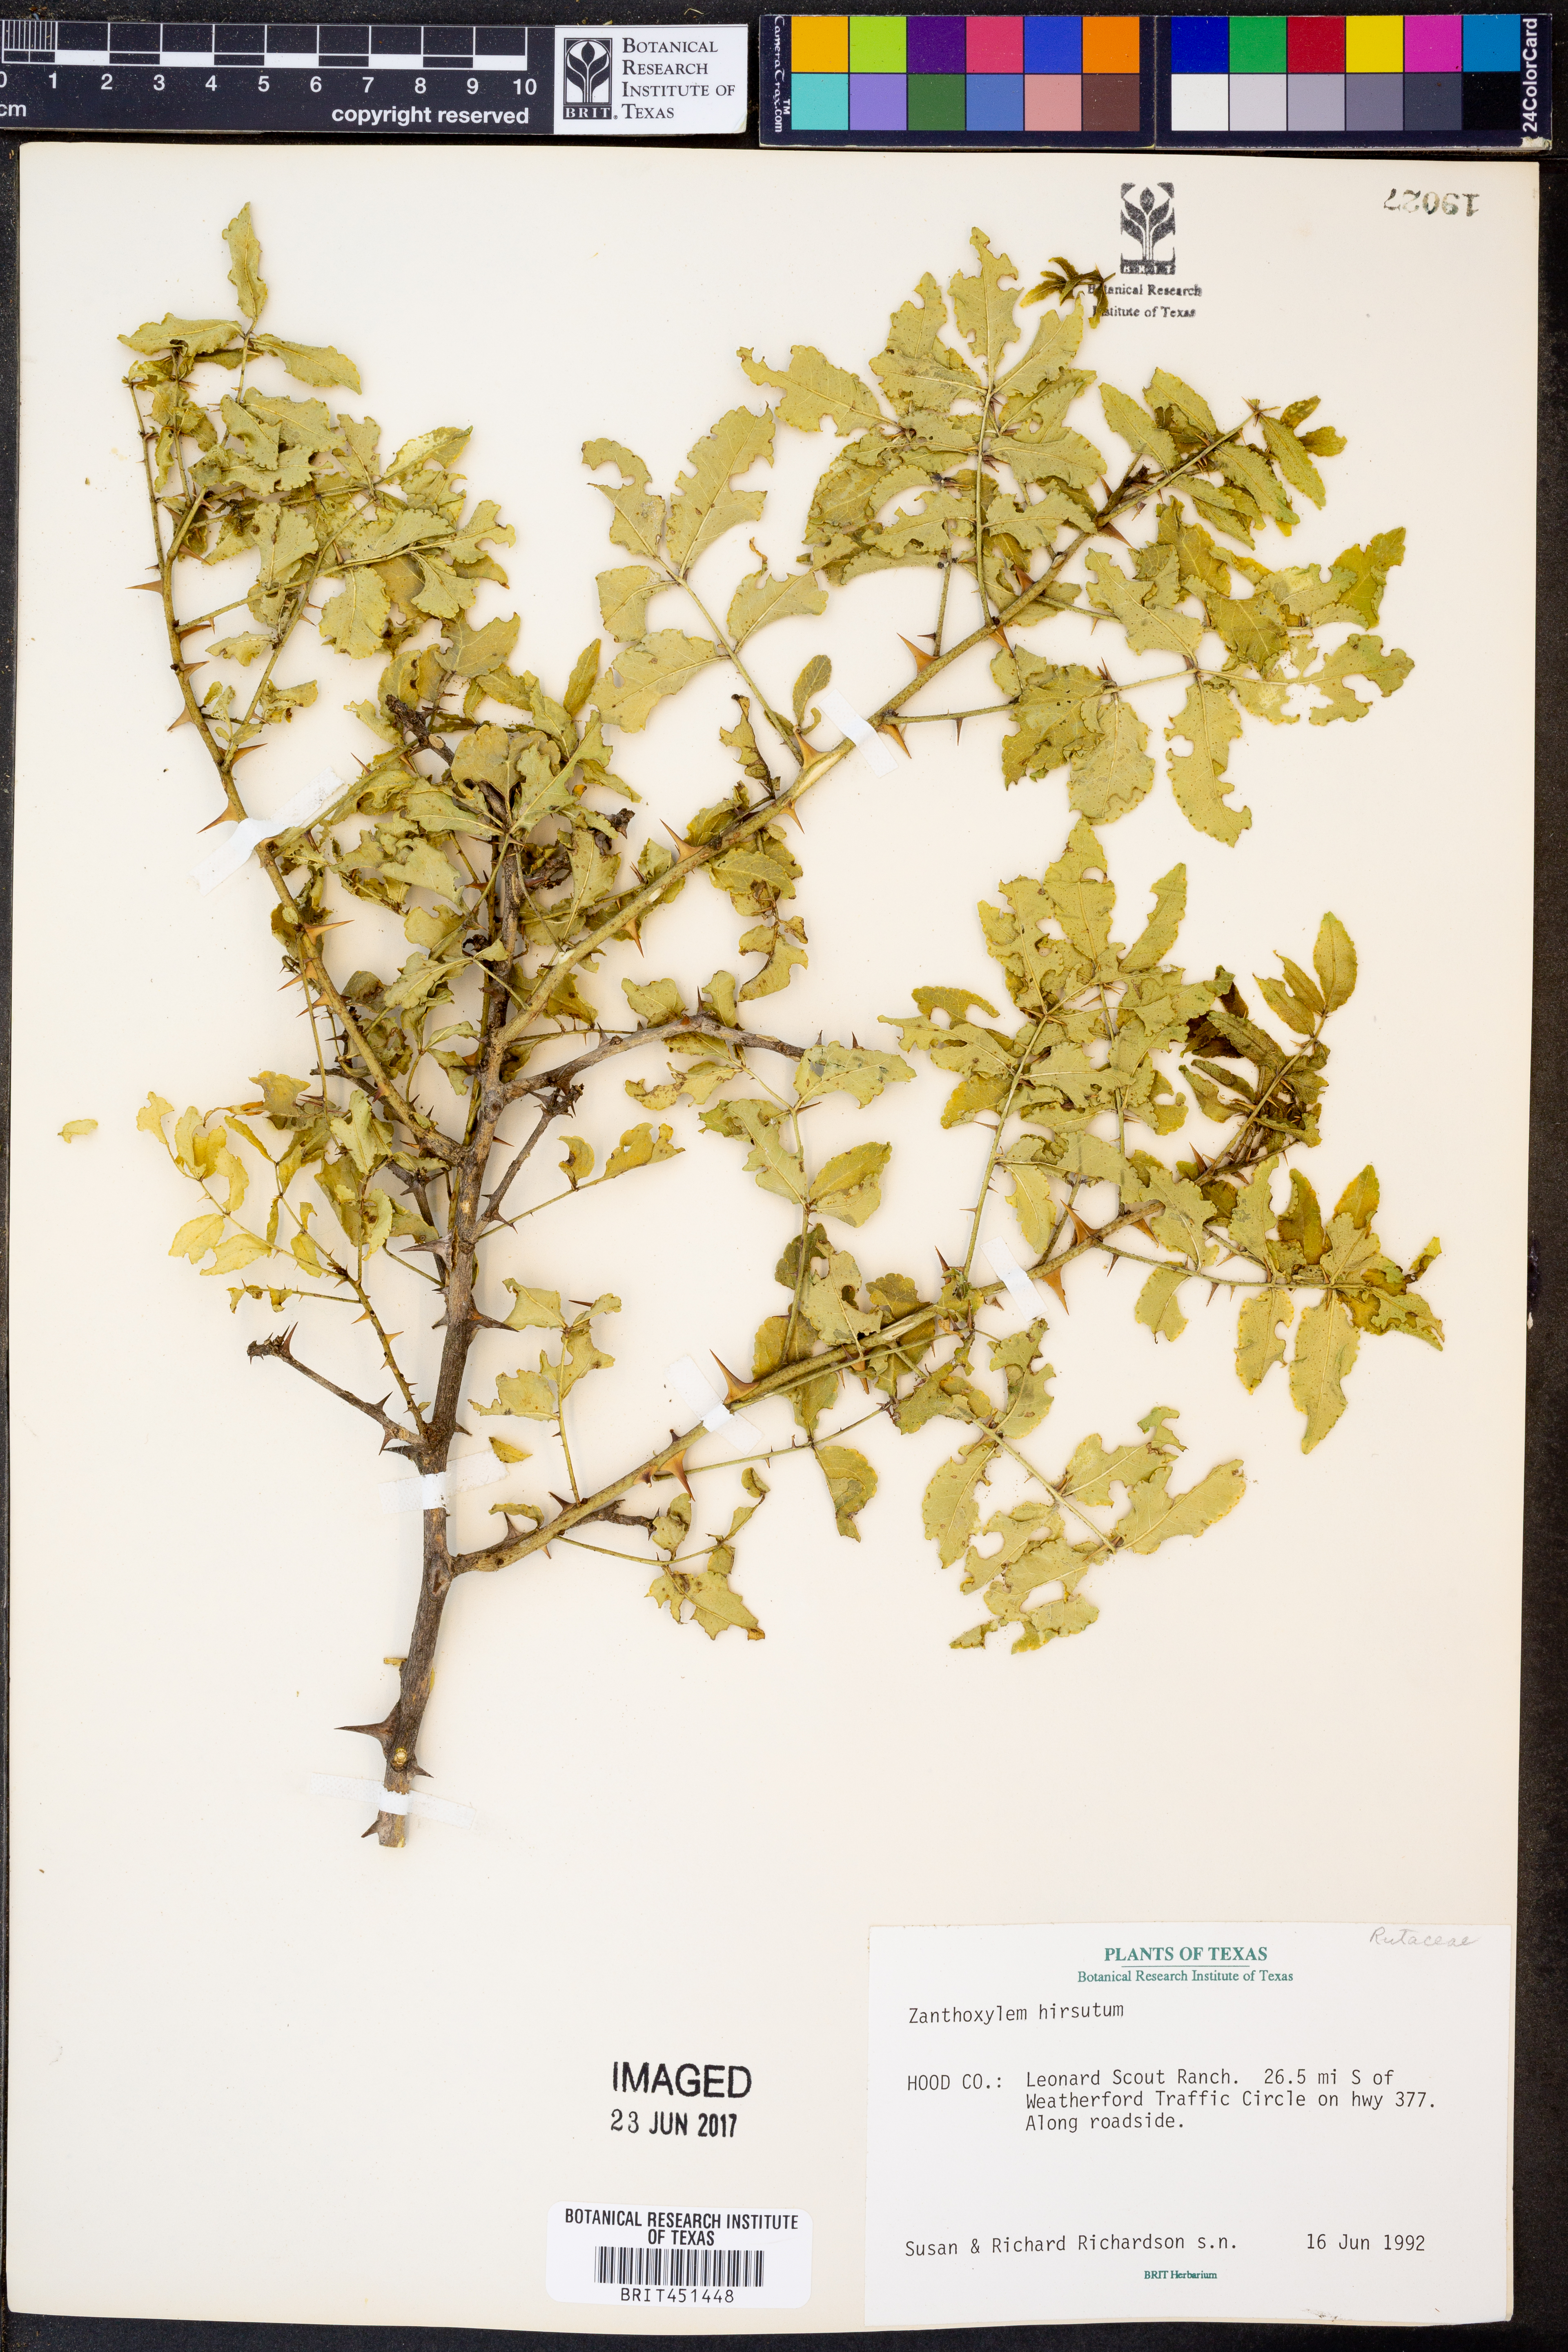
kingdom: Plantae
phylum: Tracheophyta
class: Magnoliopsida
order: Sapindales
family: Rutaceae
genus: Zanthoxylum
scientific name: Zanthoxylum clava-herculis
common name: Hercules'-club
